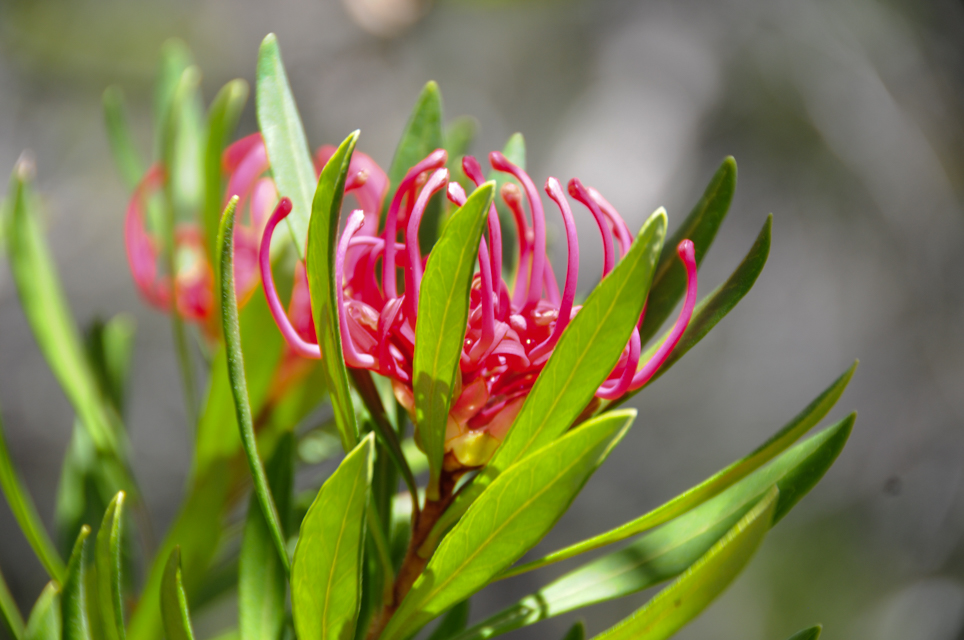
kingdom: Plantae
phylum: Tracheophyta
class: Magnoliopsida
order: Proteales
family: Proteaceae
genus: Telopea
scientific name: Telopea truncata
